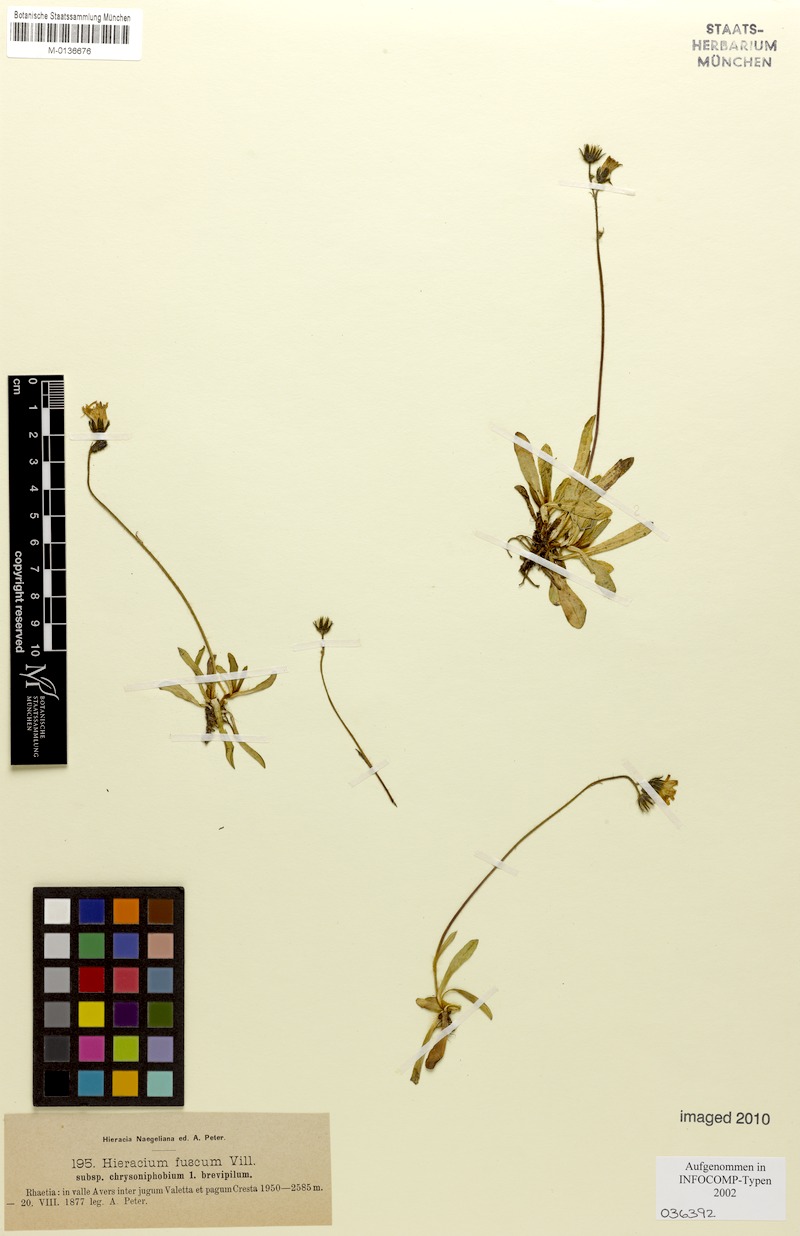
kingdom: Plantae
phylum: Tracheophyta
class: Magnoliopsida
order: Asterales
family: Asteraceae
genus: Pilosella
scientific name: Pilosella fusca
